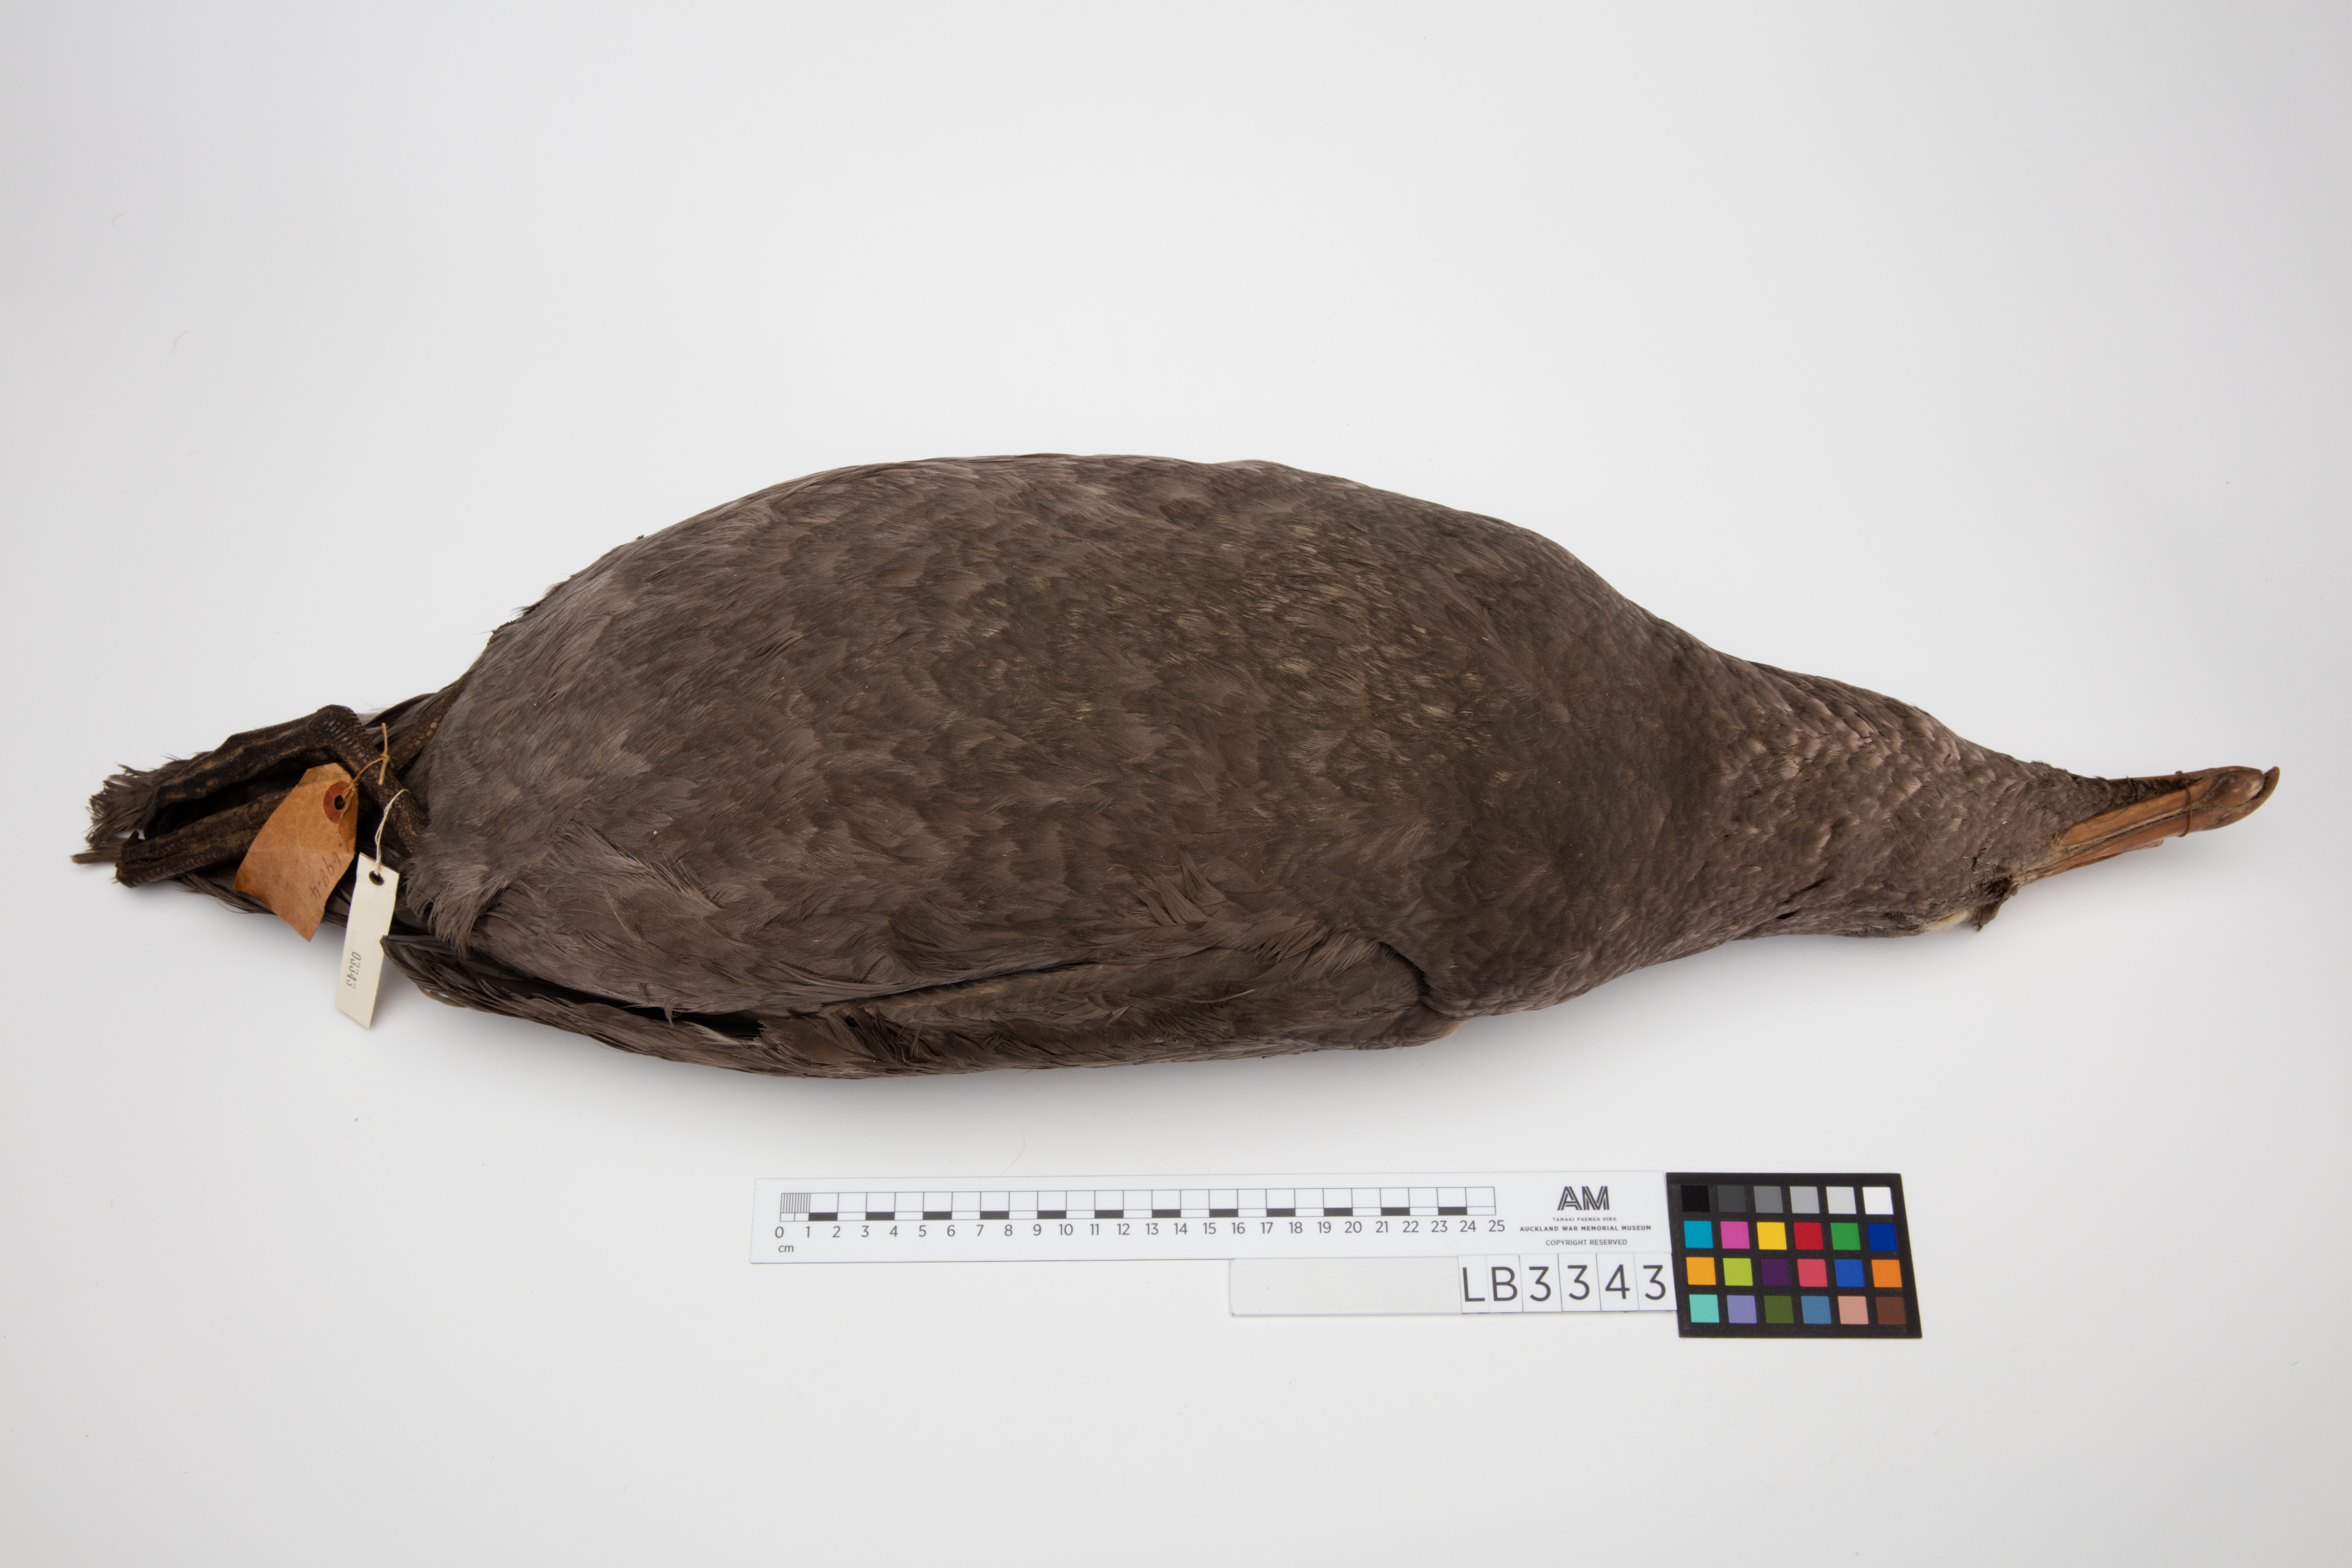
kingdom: Animalia
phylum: Chordata
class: Aves
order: Procellariiformes
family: Procellariidae
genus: Macronectes
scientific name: Macronectes giganteus
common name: Southern giant petrel
